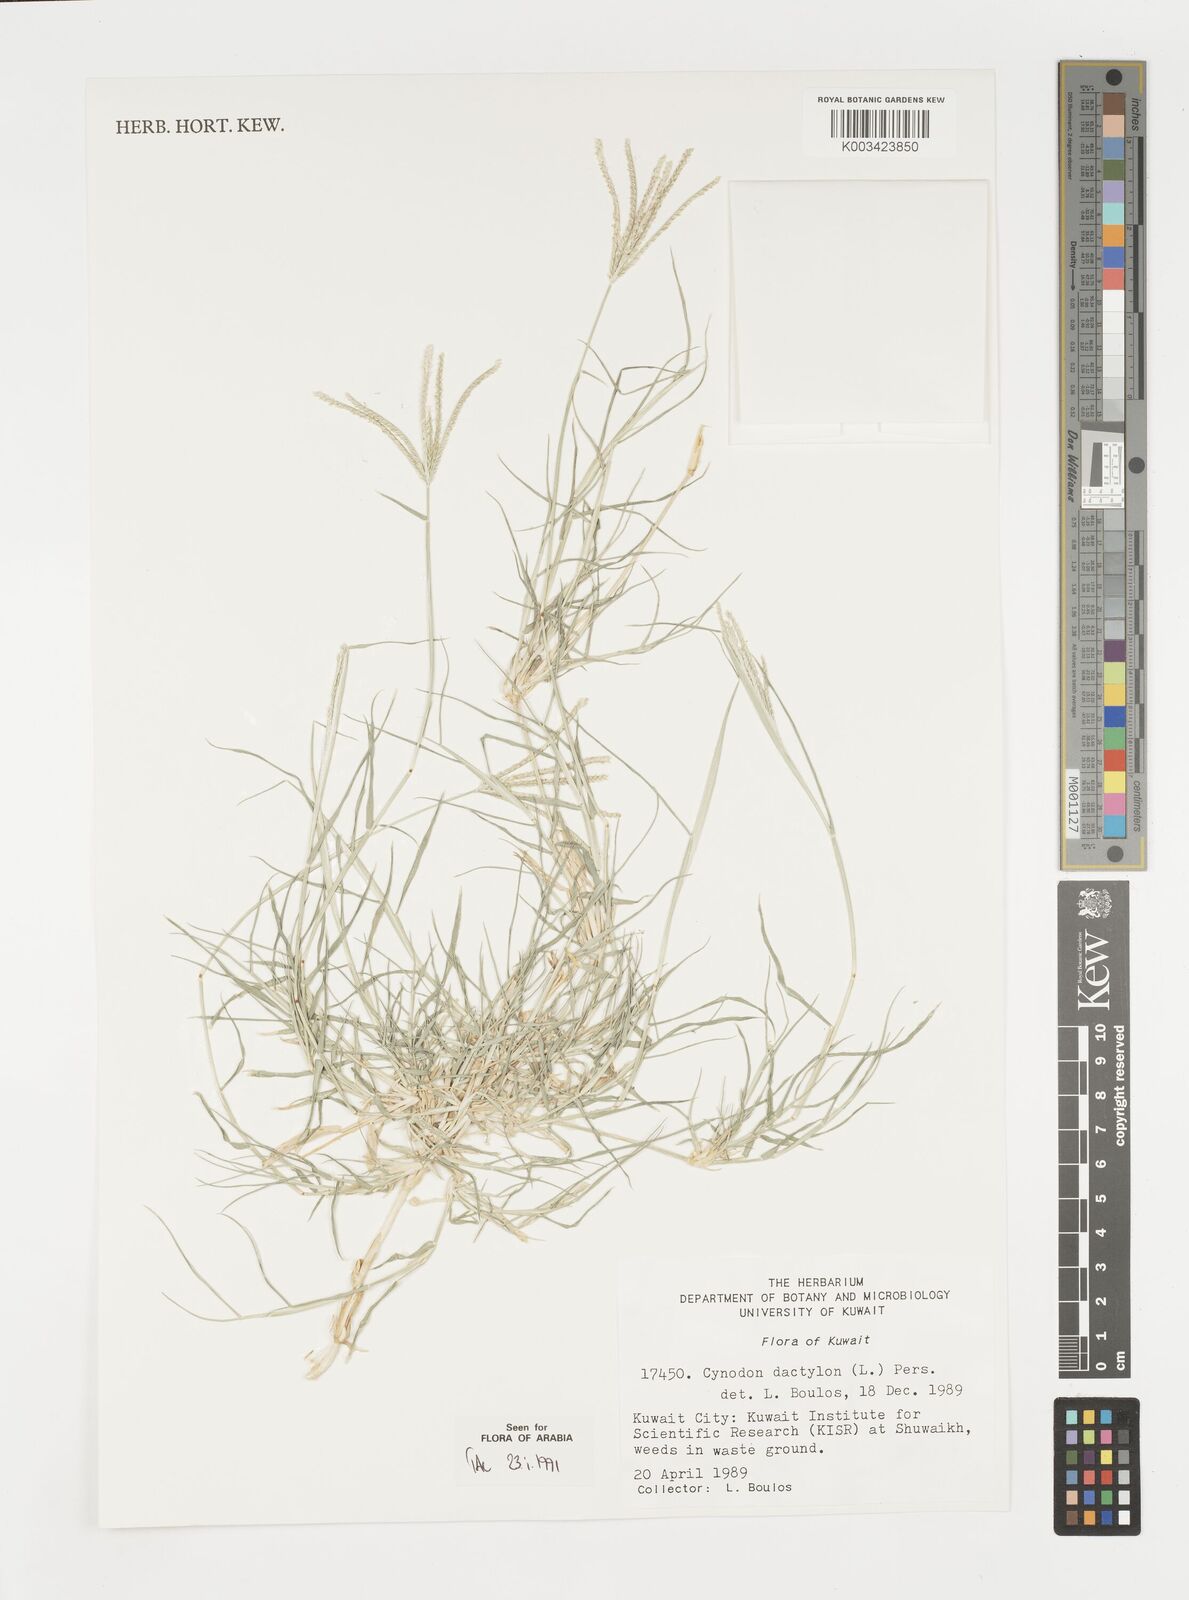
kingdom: Plantae
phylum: Tracheophyta
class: Liliopsida
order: Poales
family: Poaceae
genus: Cynodon
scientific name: Cynodon dactylon
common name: Bermuda grass
